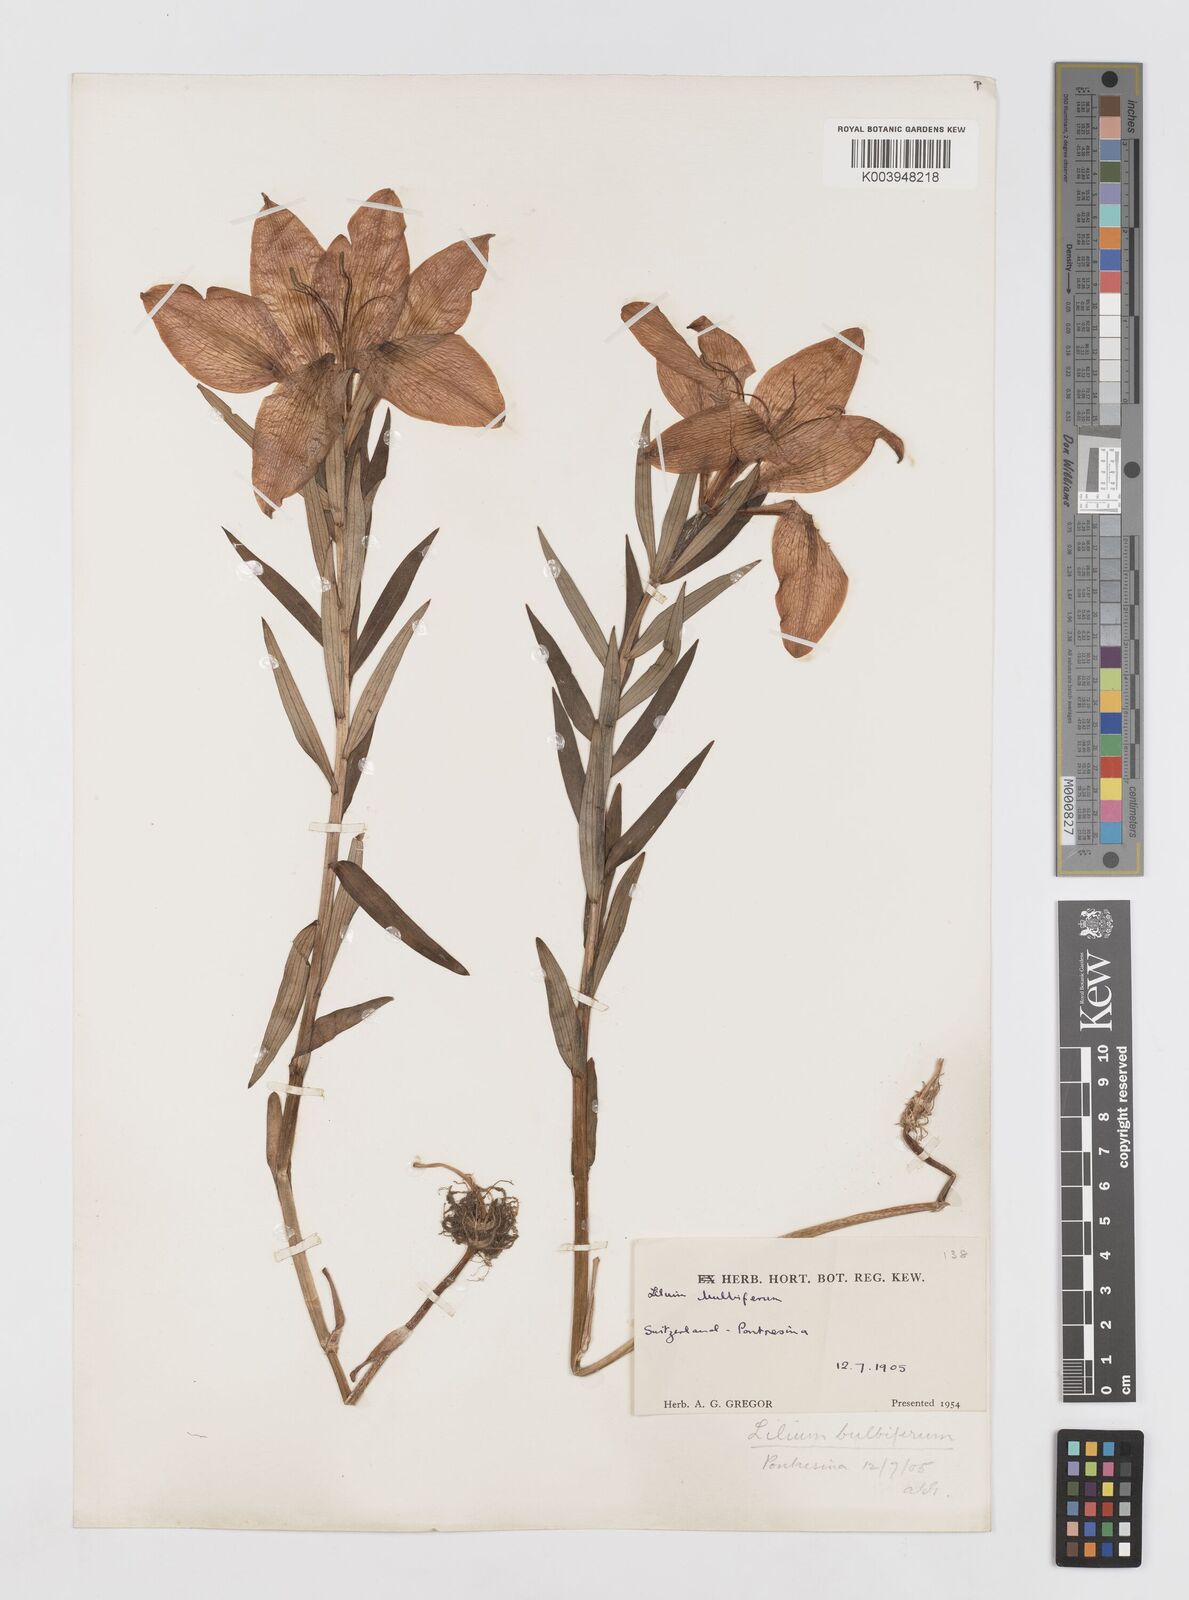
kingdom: Plantae
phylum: Tracheophyta
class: Liliopsida
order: Liliales
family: Liliaceae
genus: Lilium
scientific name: Lilium bulbiferum
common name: Orange lily
